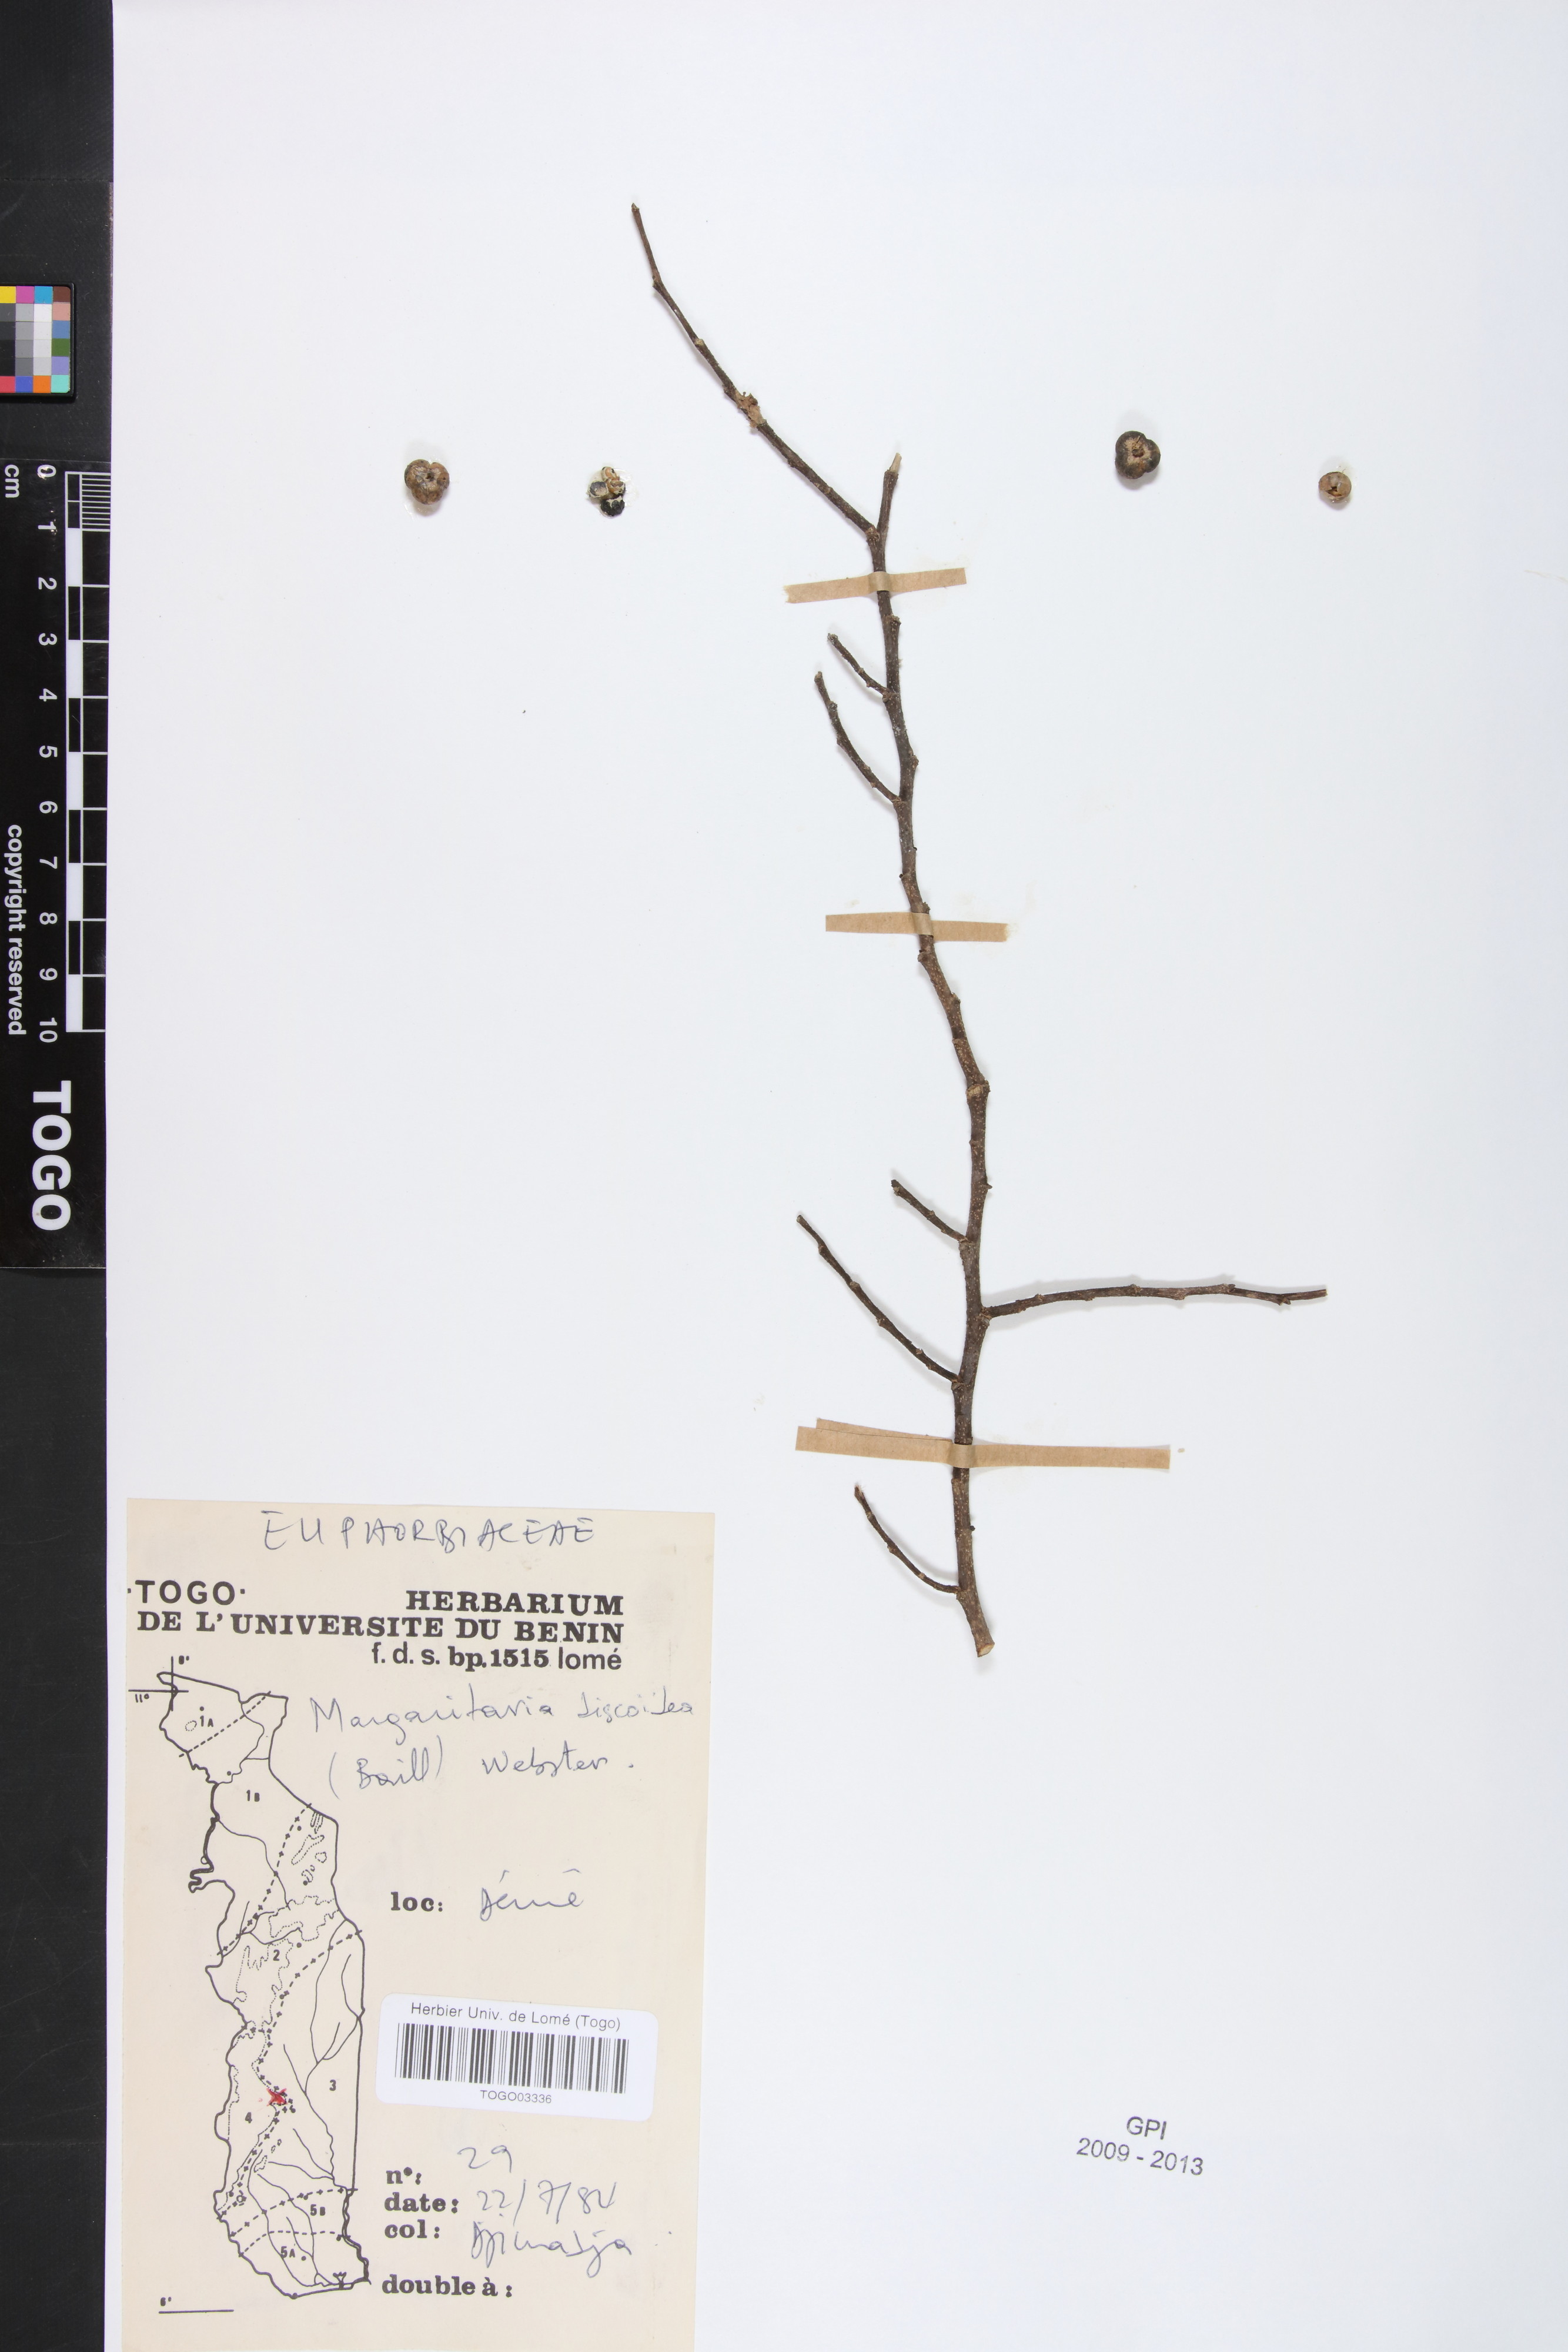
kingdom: Plantae
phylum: Tracheophyta
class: Magnoliopsida
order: Malpighiales
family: Phyllanthaceae
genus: Margaritaria
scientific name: Margaritaria discoidea
